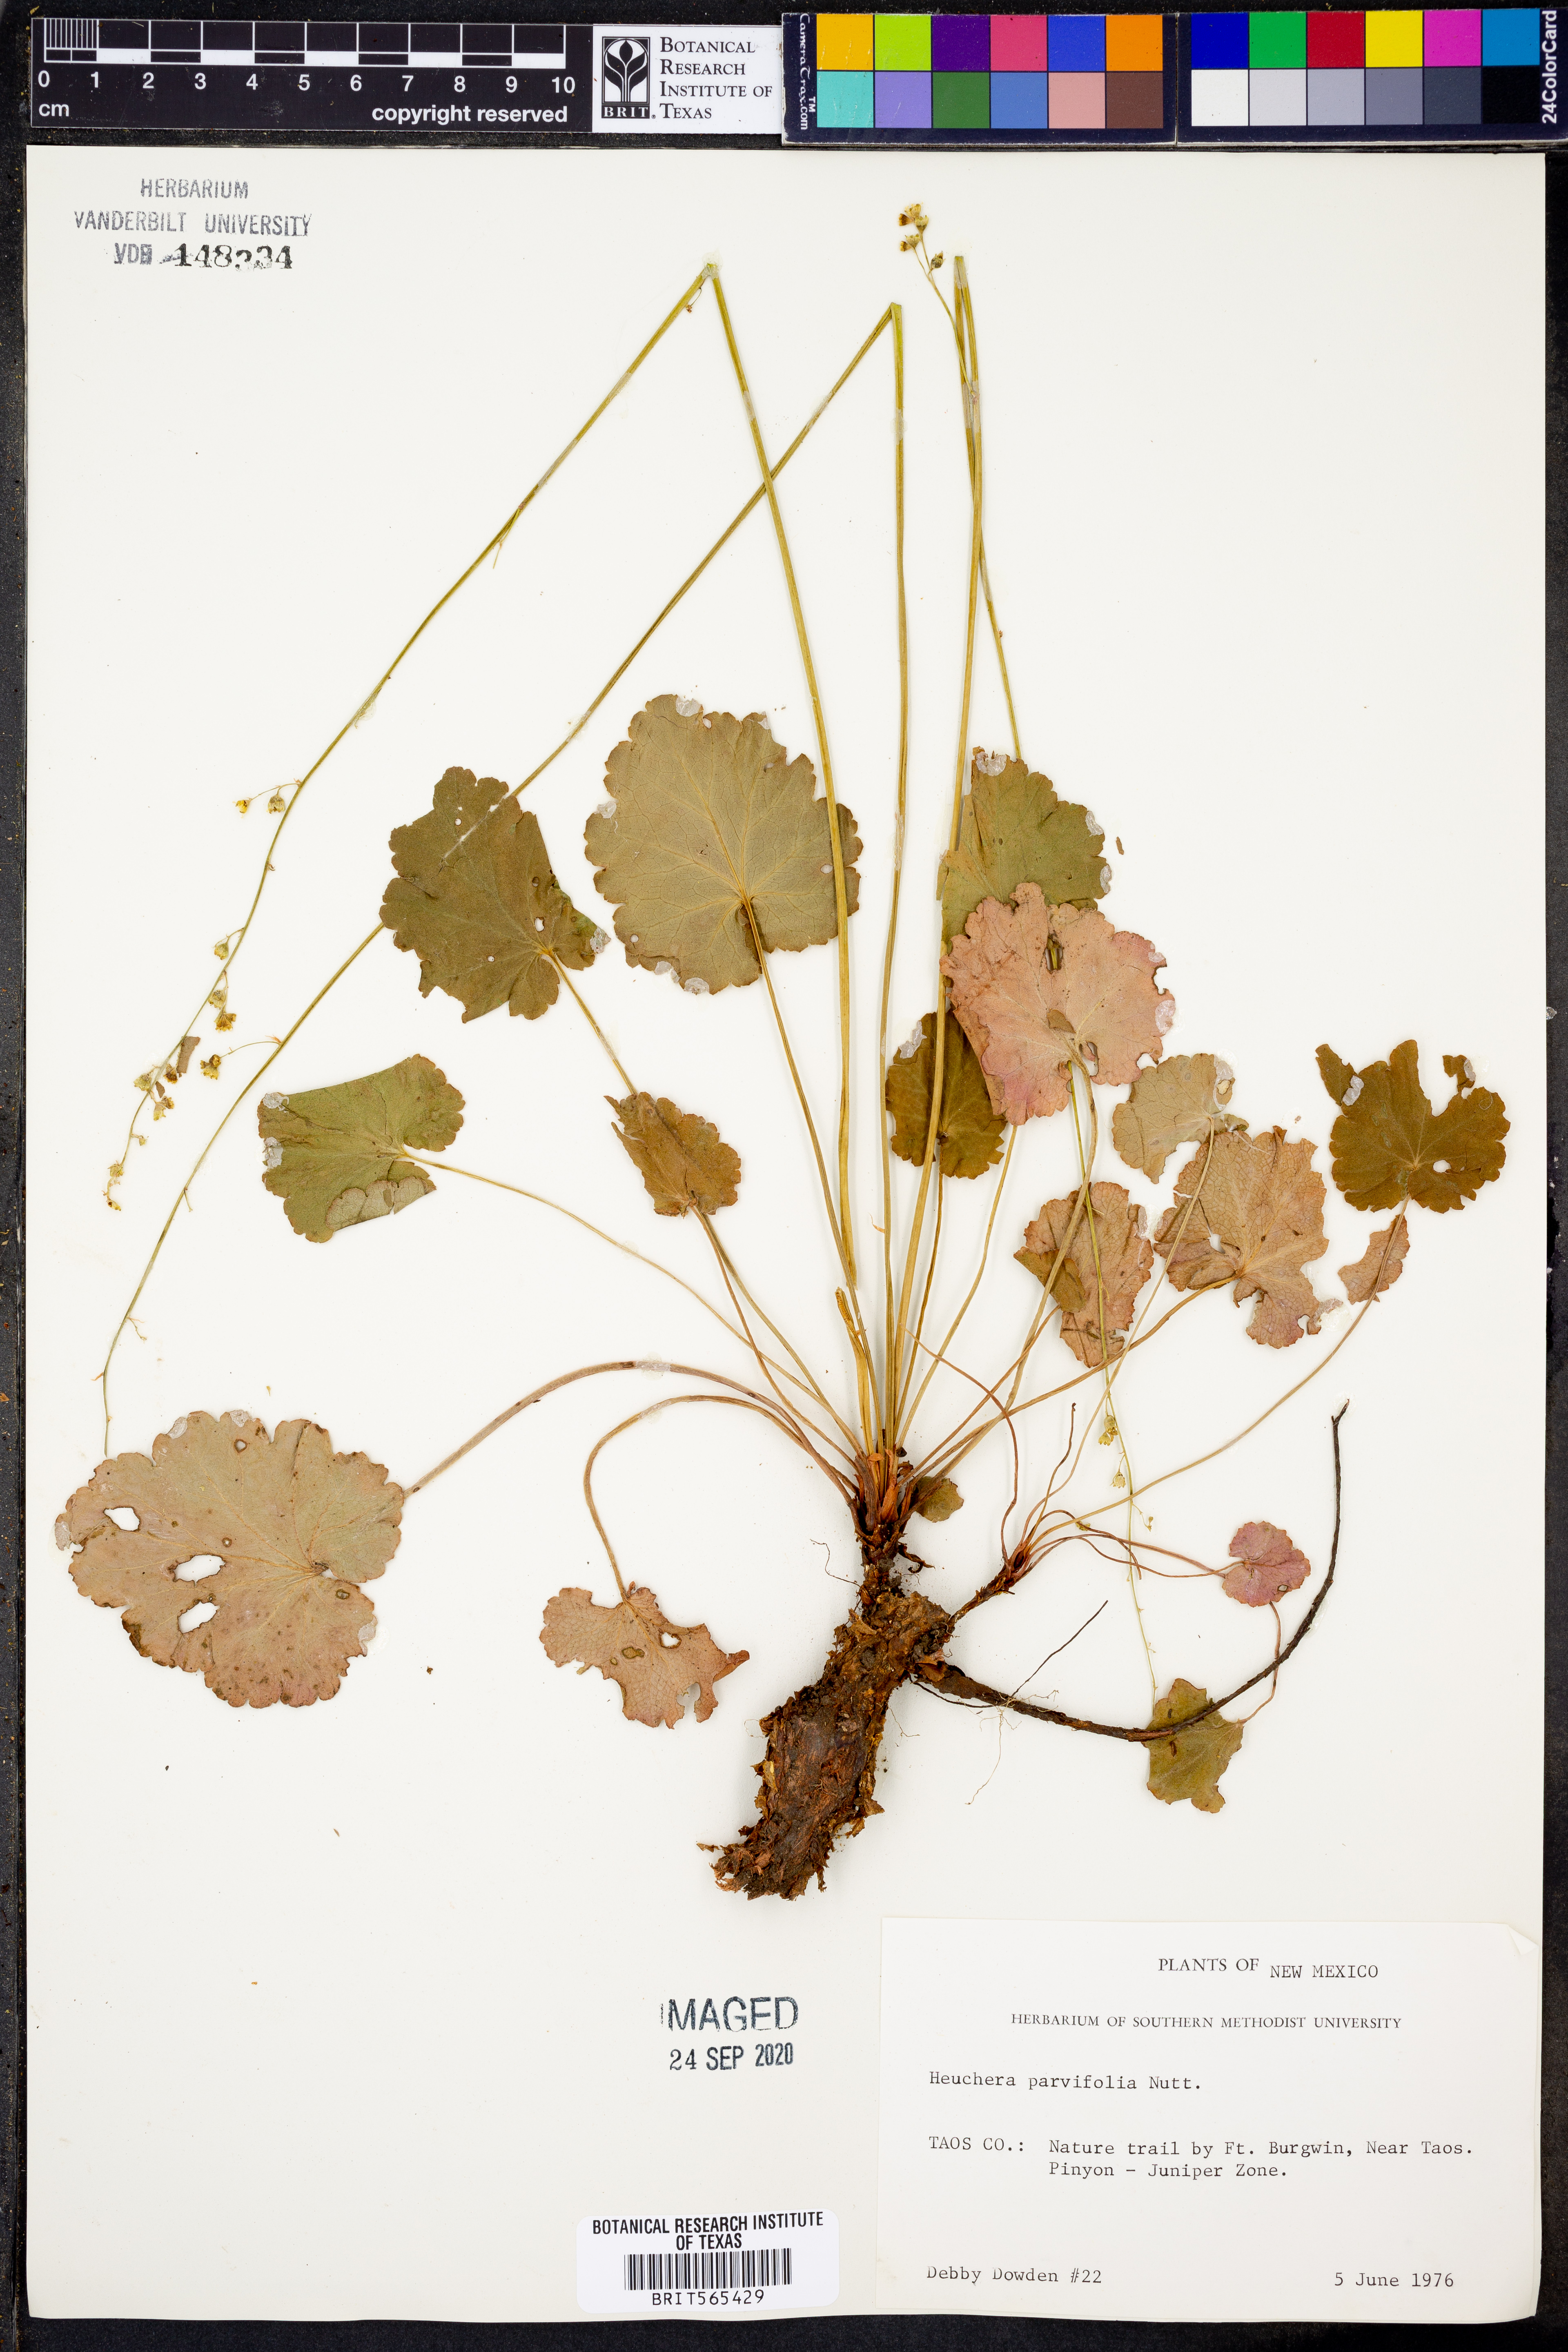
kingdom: Plantae
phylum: Tracheophyta
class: Magnoliopsida
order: Saxifragales
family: Saxifragaceae
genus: Heuchera
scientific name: Heuchera parvifolia
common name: Common alumroot
